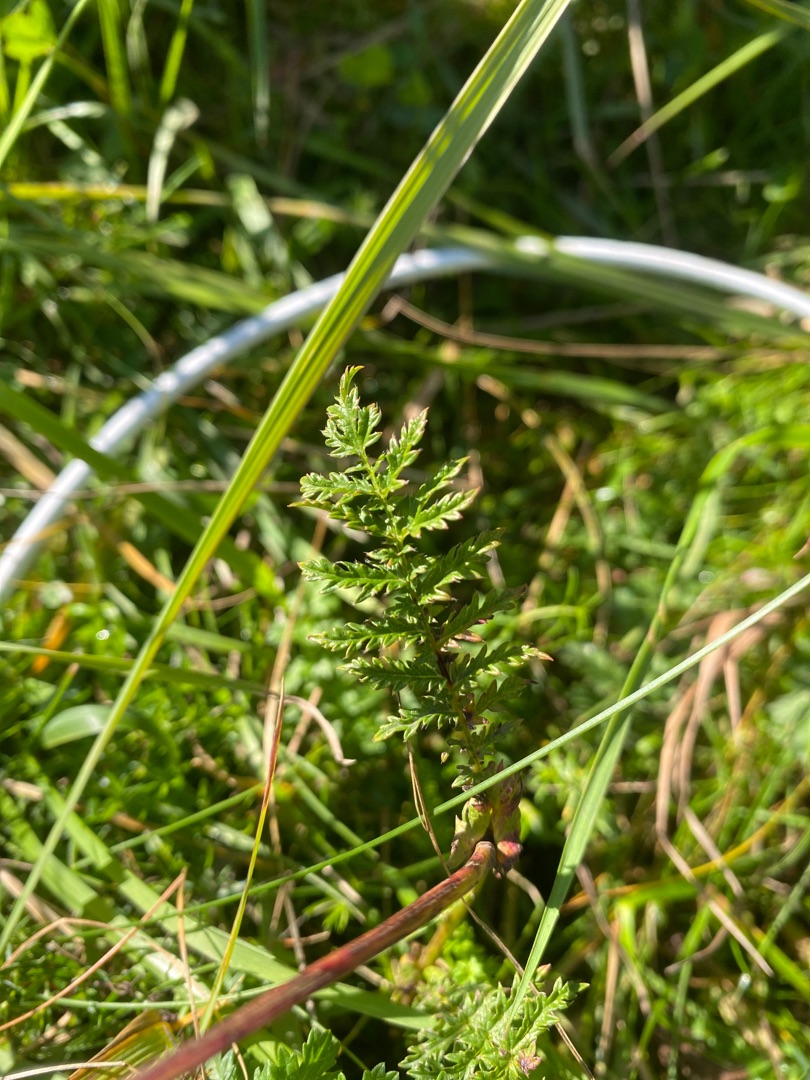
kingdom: Plantae
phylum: Tracheophyta
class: Magnoliopsida
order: Asterales
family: Asteraceae
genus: Tanacetum
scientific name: Tanacetum vulgare
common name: Rejnfan
